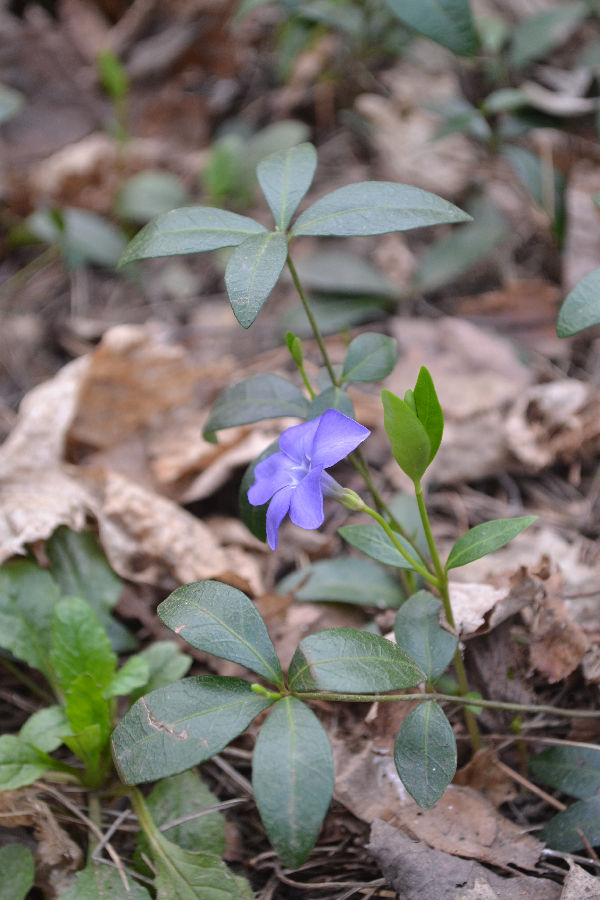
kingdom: Plantae
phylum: Tracheophyta
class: Magnoliopsida
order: Gentianales
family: Apocynaceae
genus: Vinca
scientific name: Vinca minor
